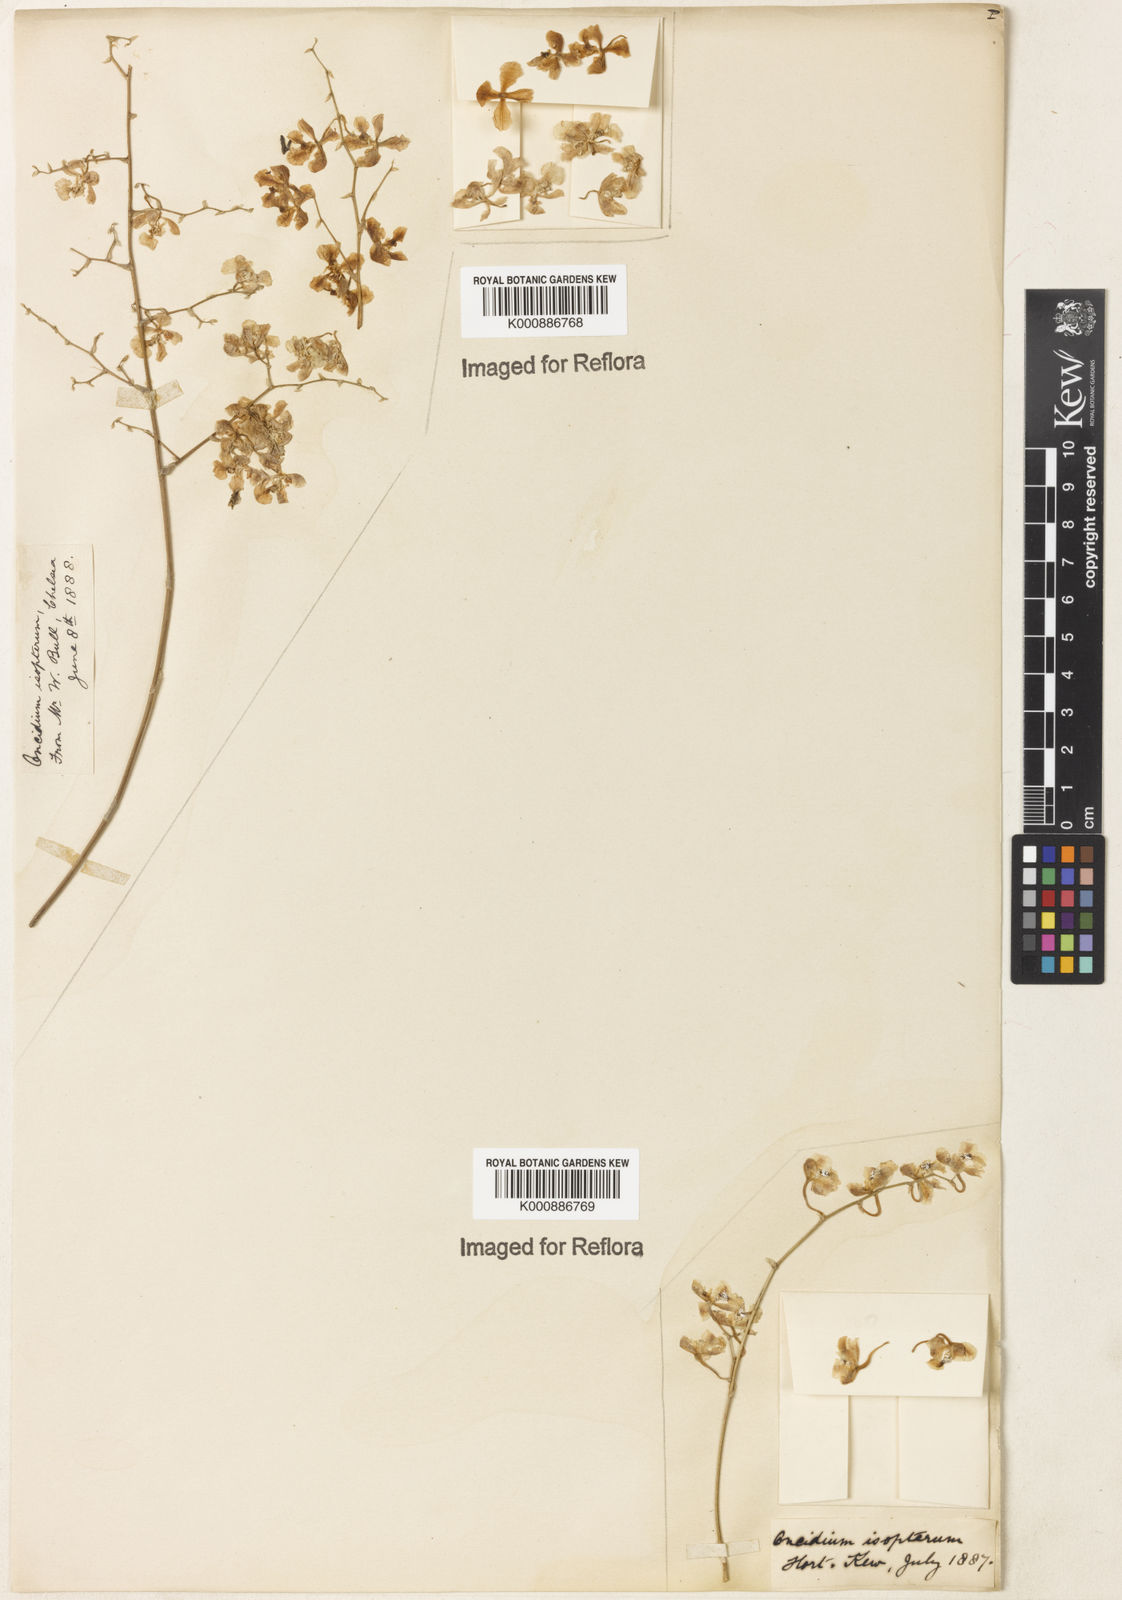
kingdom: Plantae
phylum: Tracheophyta
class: Liliopsida
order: Asparagales
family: Orchidaceae
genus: Gomesa
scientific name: Gomesa cornigera
